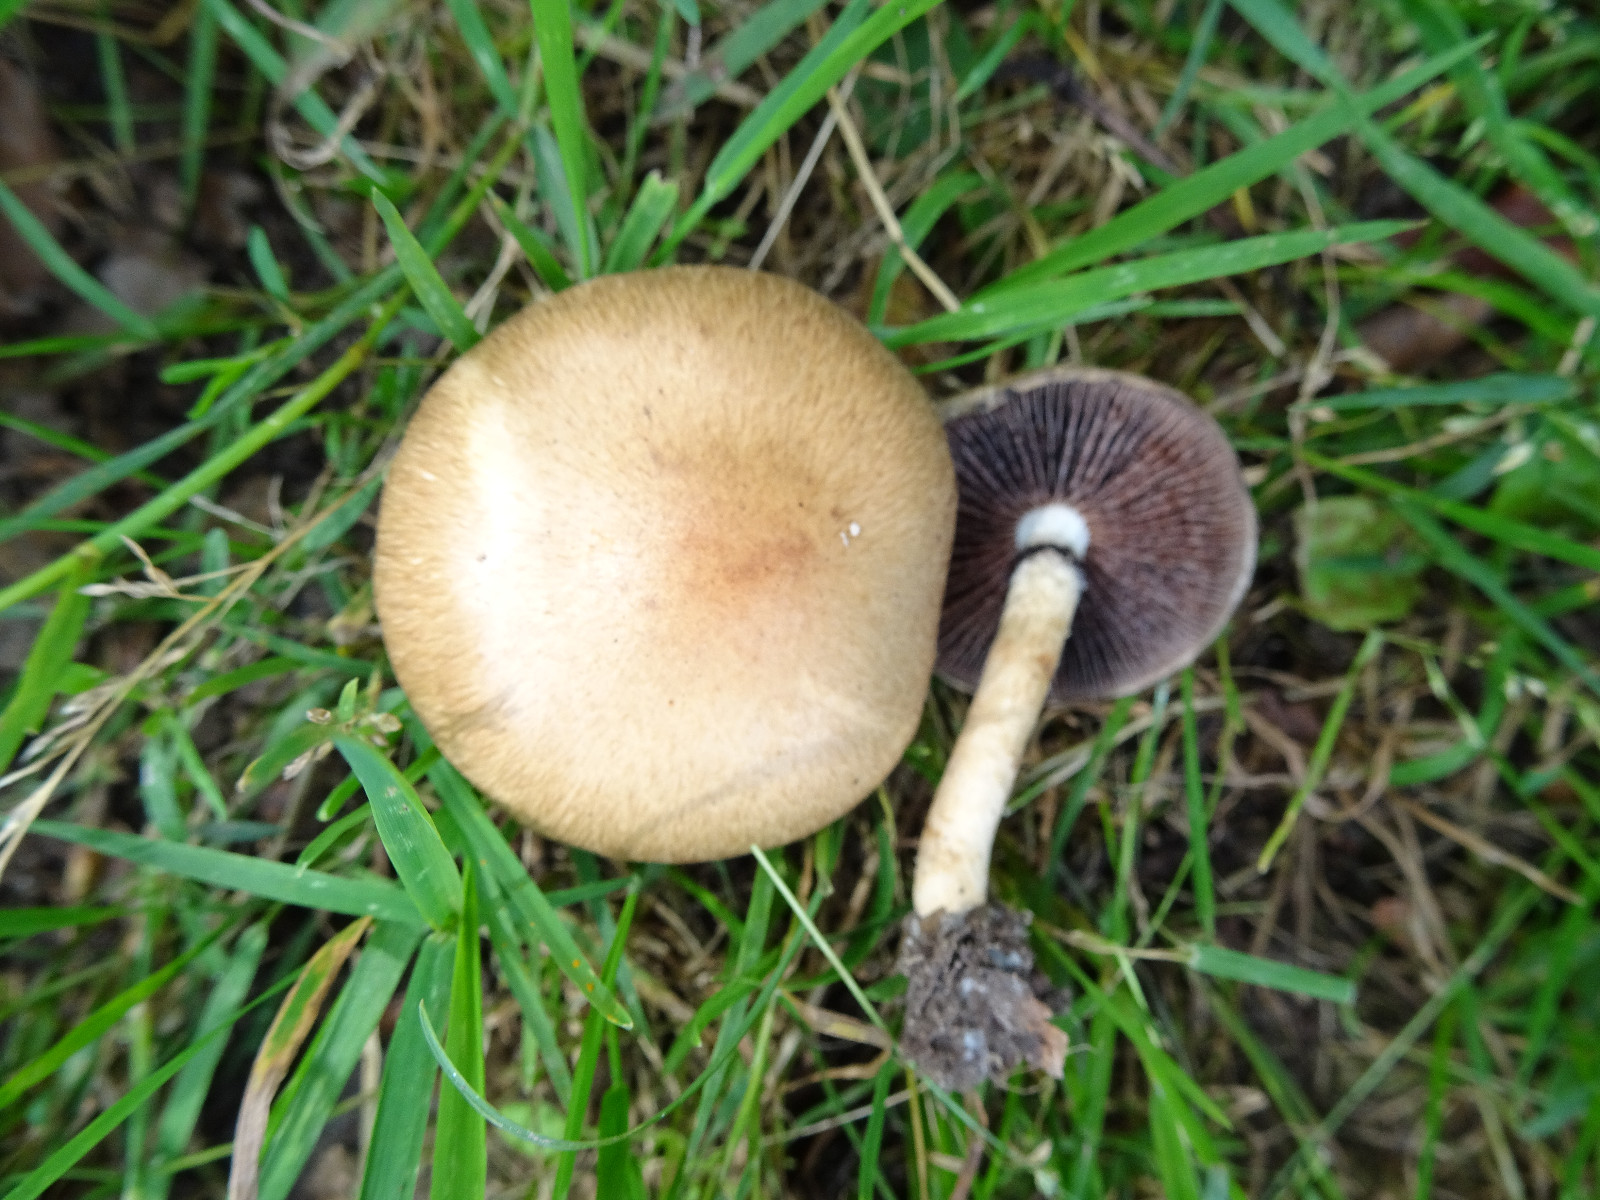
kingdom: Fungi
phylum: Basidiomycota
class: Agaricomycetes
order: Agaricales
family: Psathyrellaceae
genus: Lacrymaria
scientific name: Lacrymaria lacrymabunda
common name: grædende mørkhat
